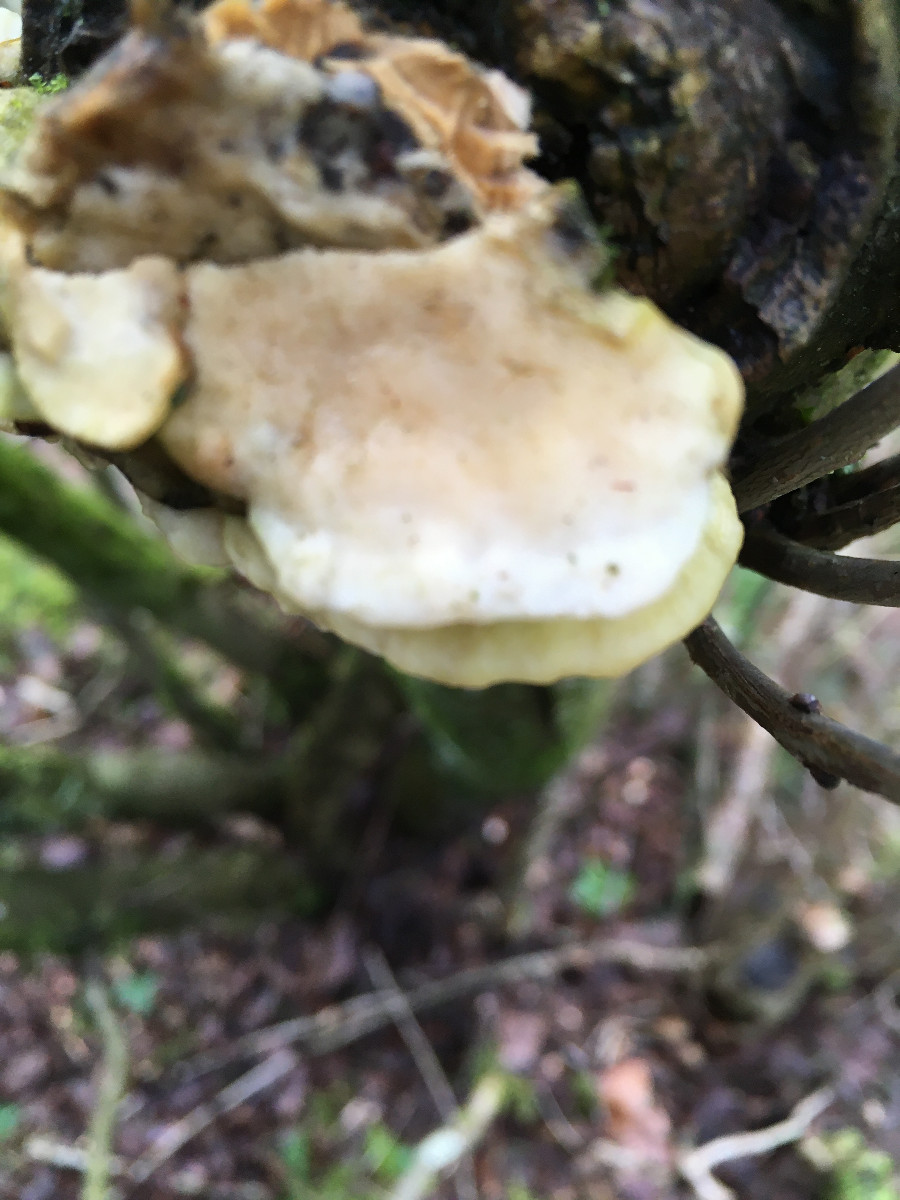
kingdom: Fungi
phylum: Basidiomycota
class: Agaricomycetes
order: Polyporales
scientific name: Polyporales
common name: poresvampordenen
